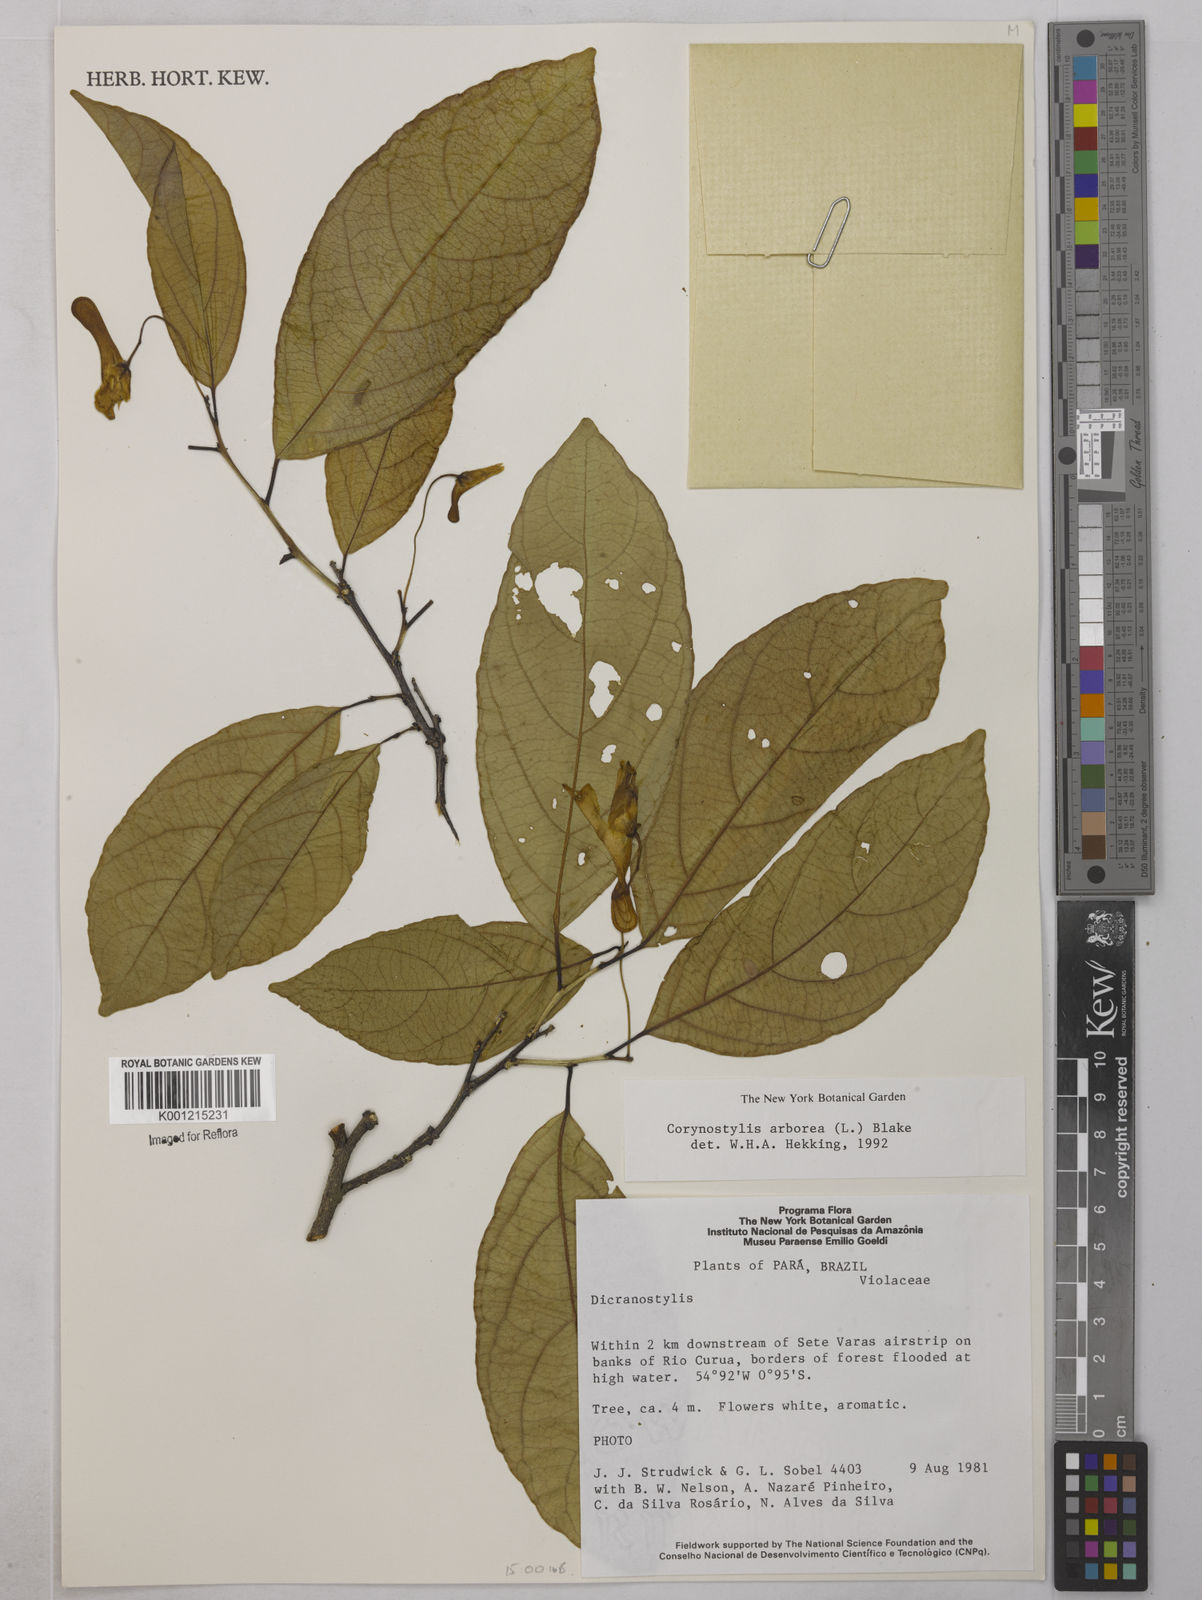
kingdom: Plantae
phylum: Tracheophyta
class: Magnoliopsida
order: Malpighiales
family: Violaceae
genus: Calyptrion
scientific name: Calyptrion arboreum
